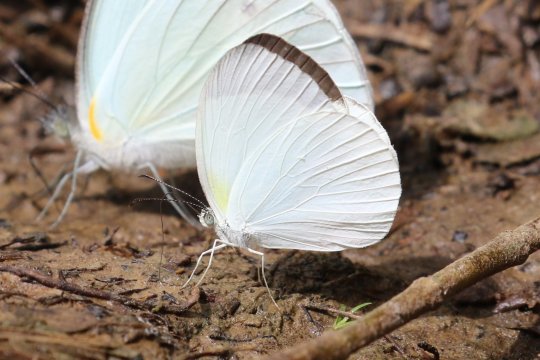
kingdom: Animalia
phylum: Arthropoda
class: Insecta
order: Lepidoptera
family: Pieridae
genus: Abaeis
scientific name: Abaeis albula
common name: Ghost Yellow
